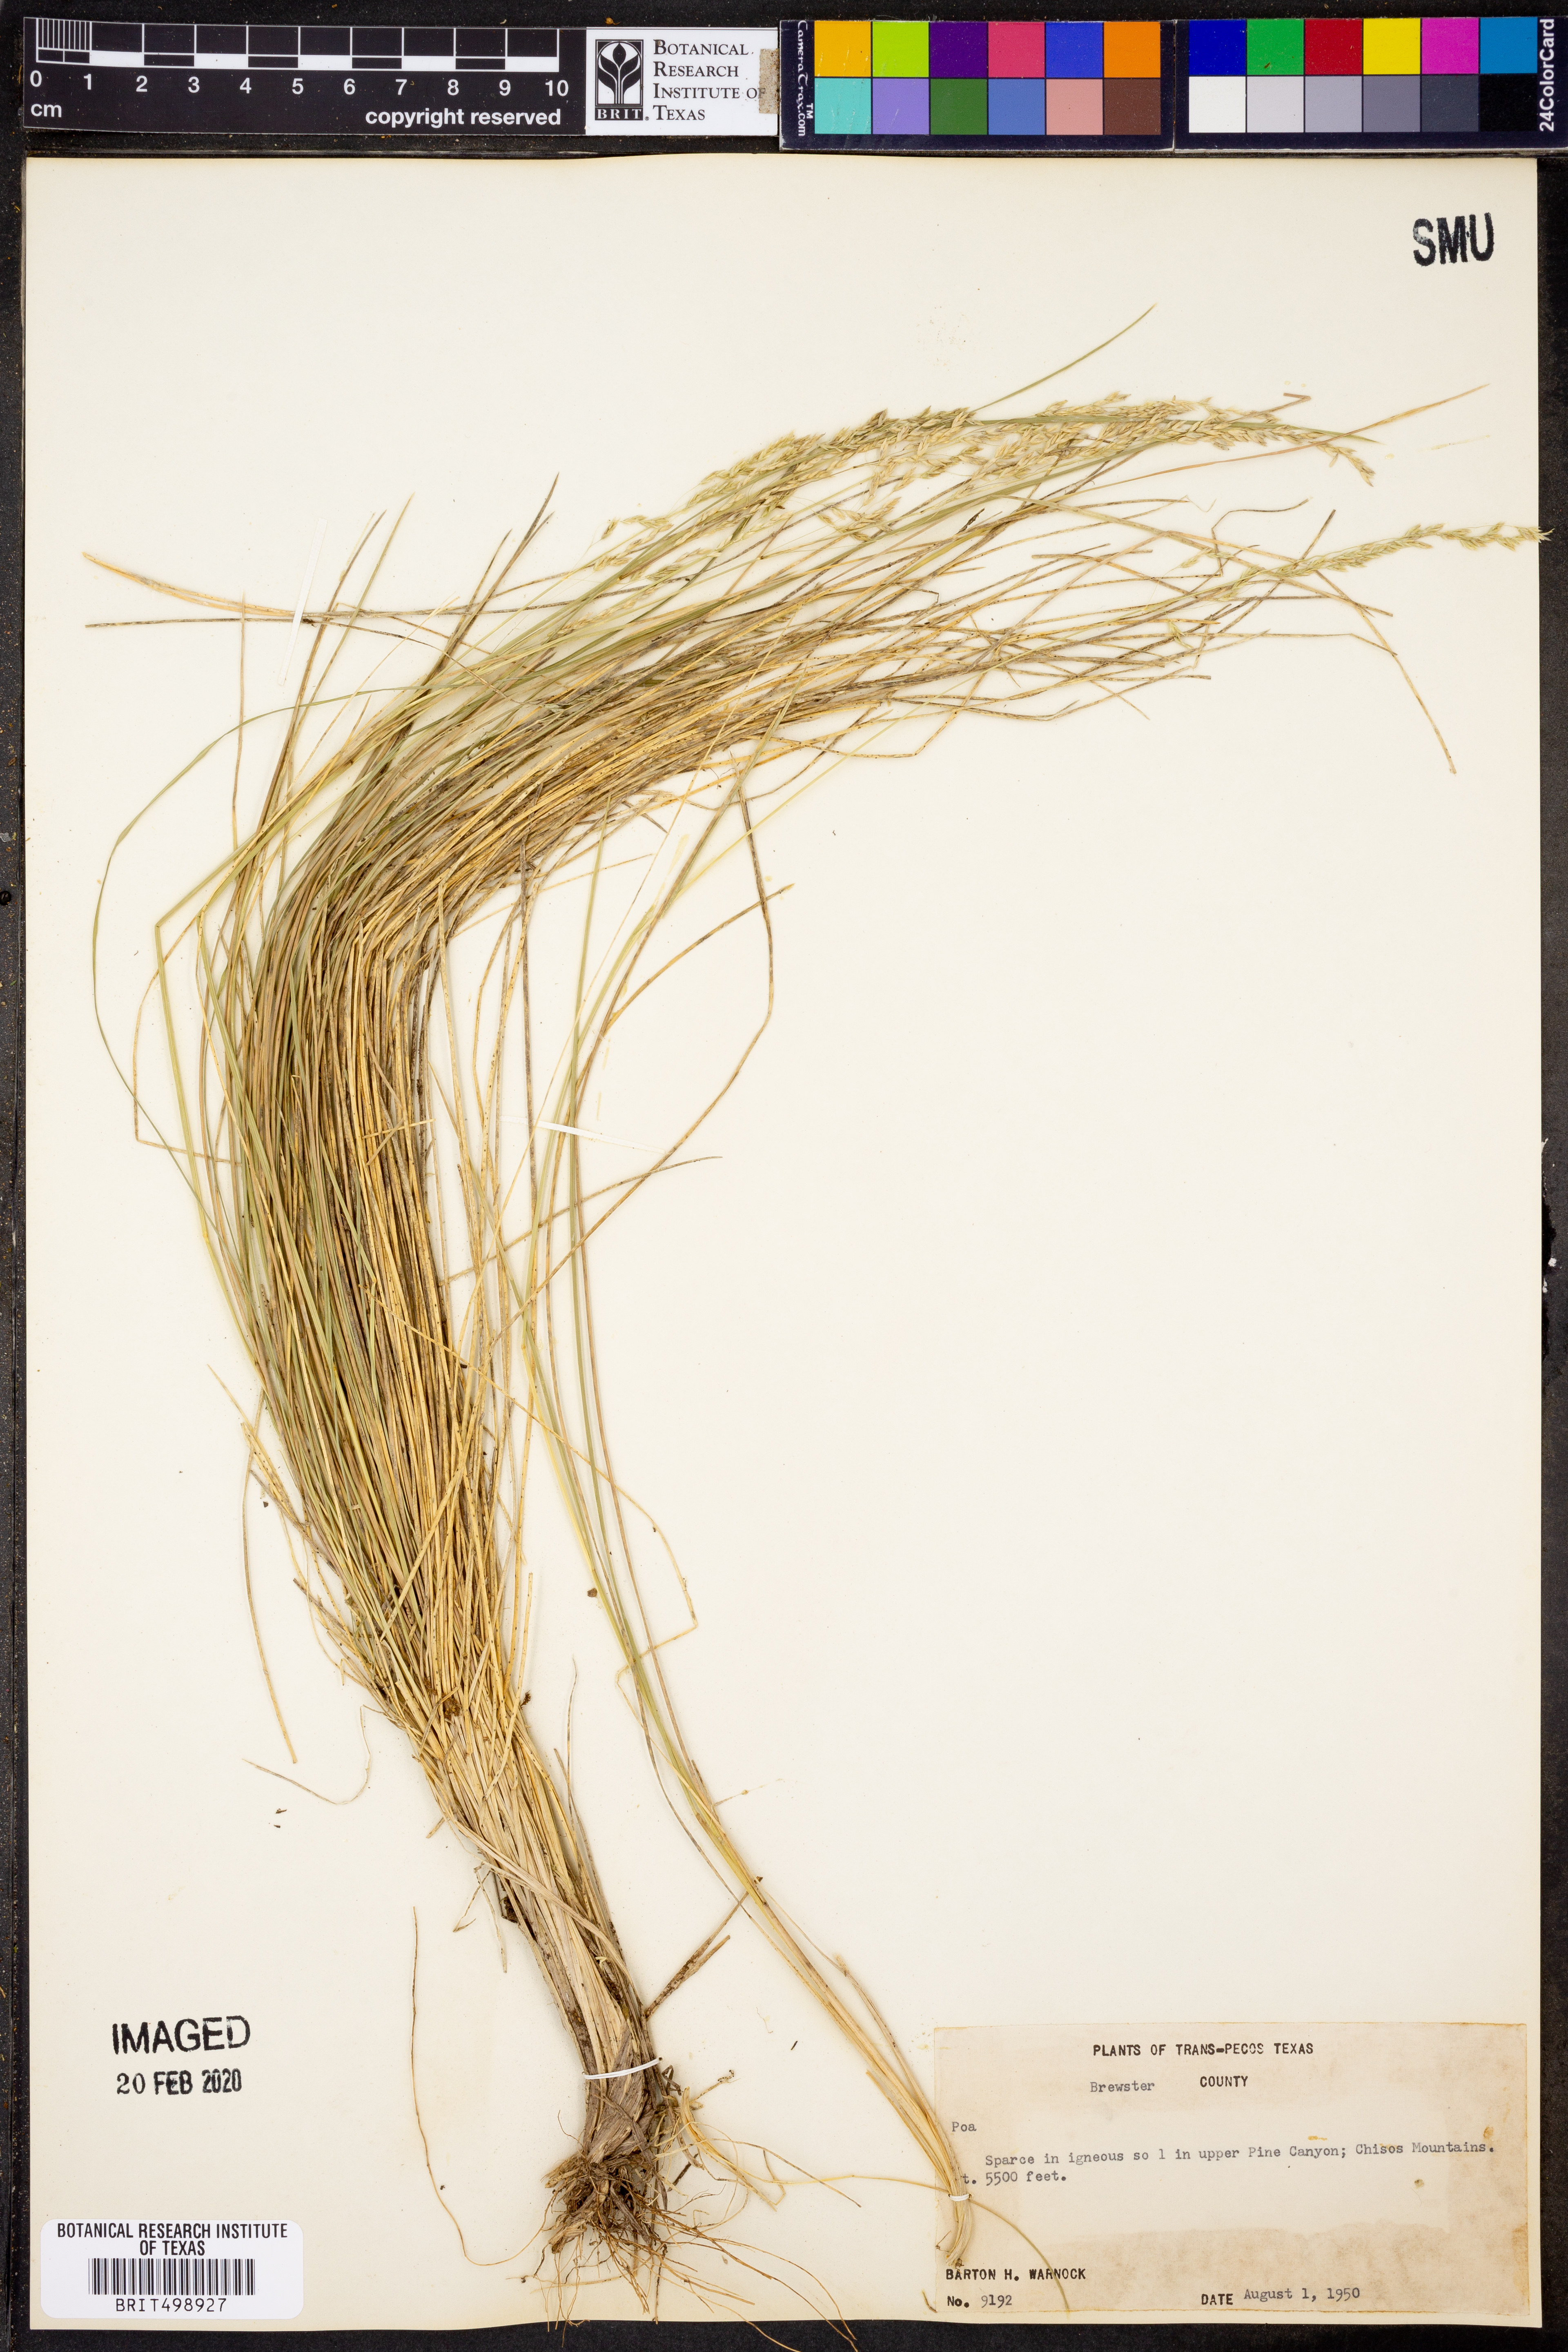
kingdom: Plantae
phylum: Tracheophyta
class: Liliopsida
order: Poales
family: Poaceae
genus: Poa
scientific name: Poa
